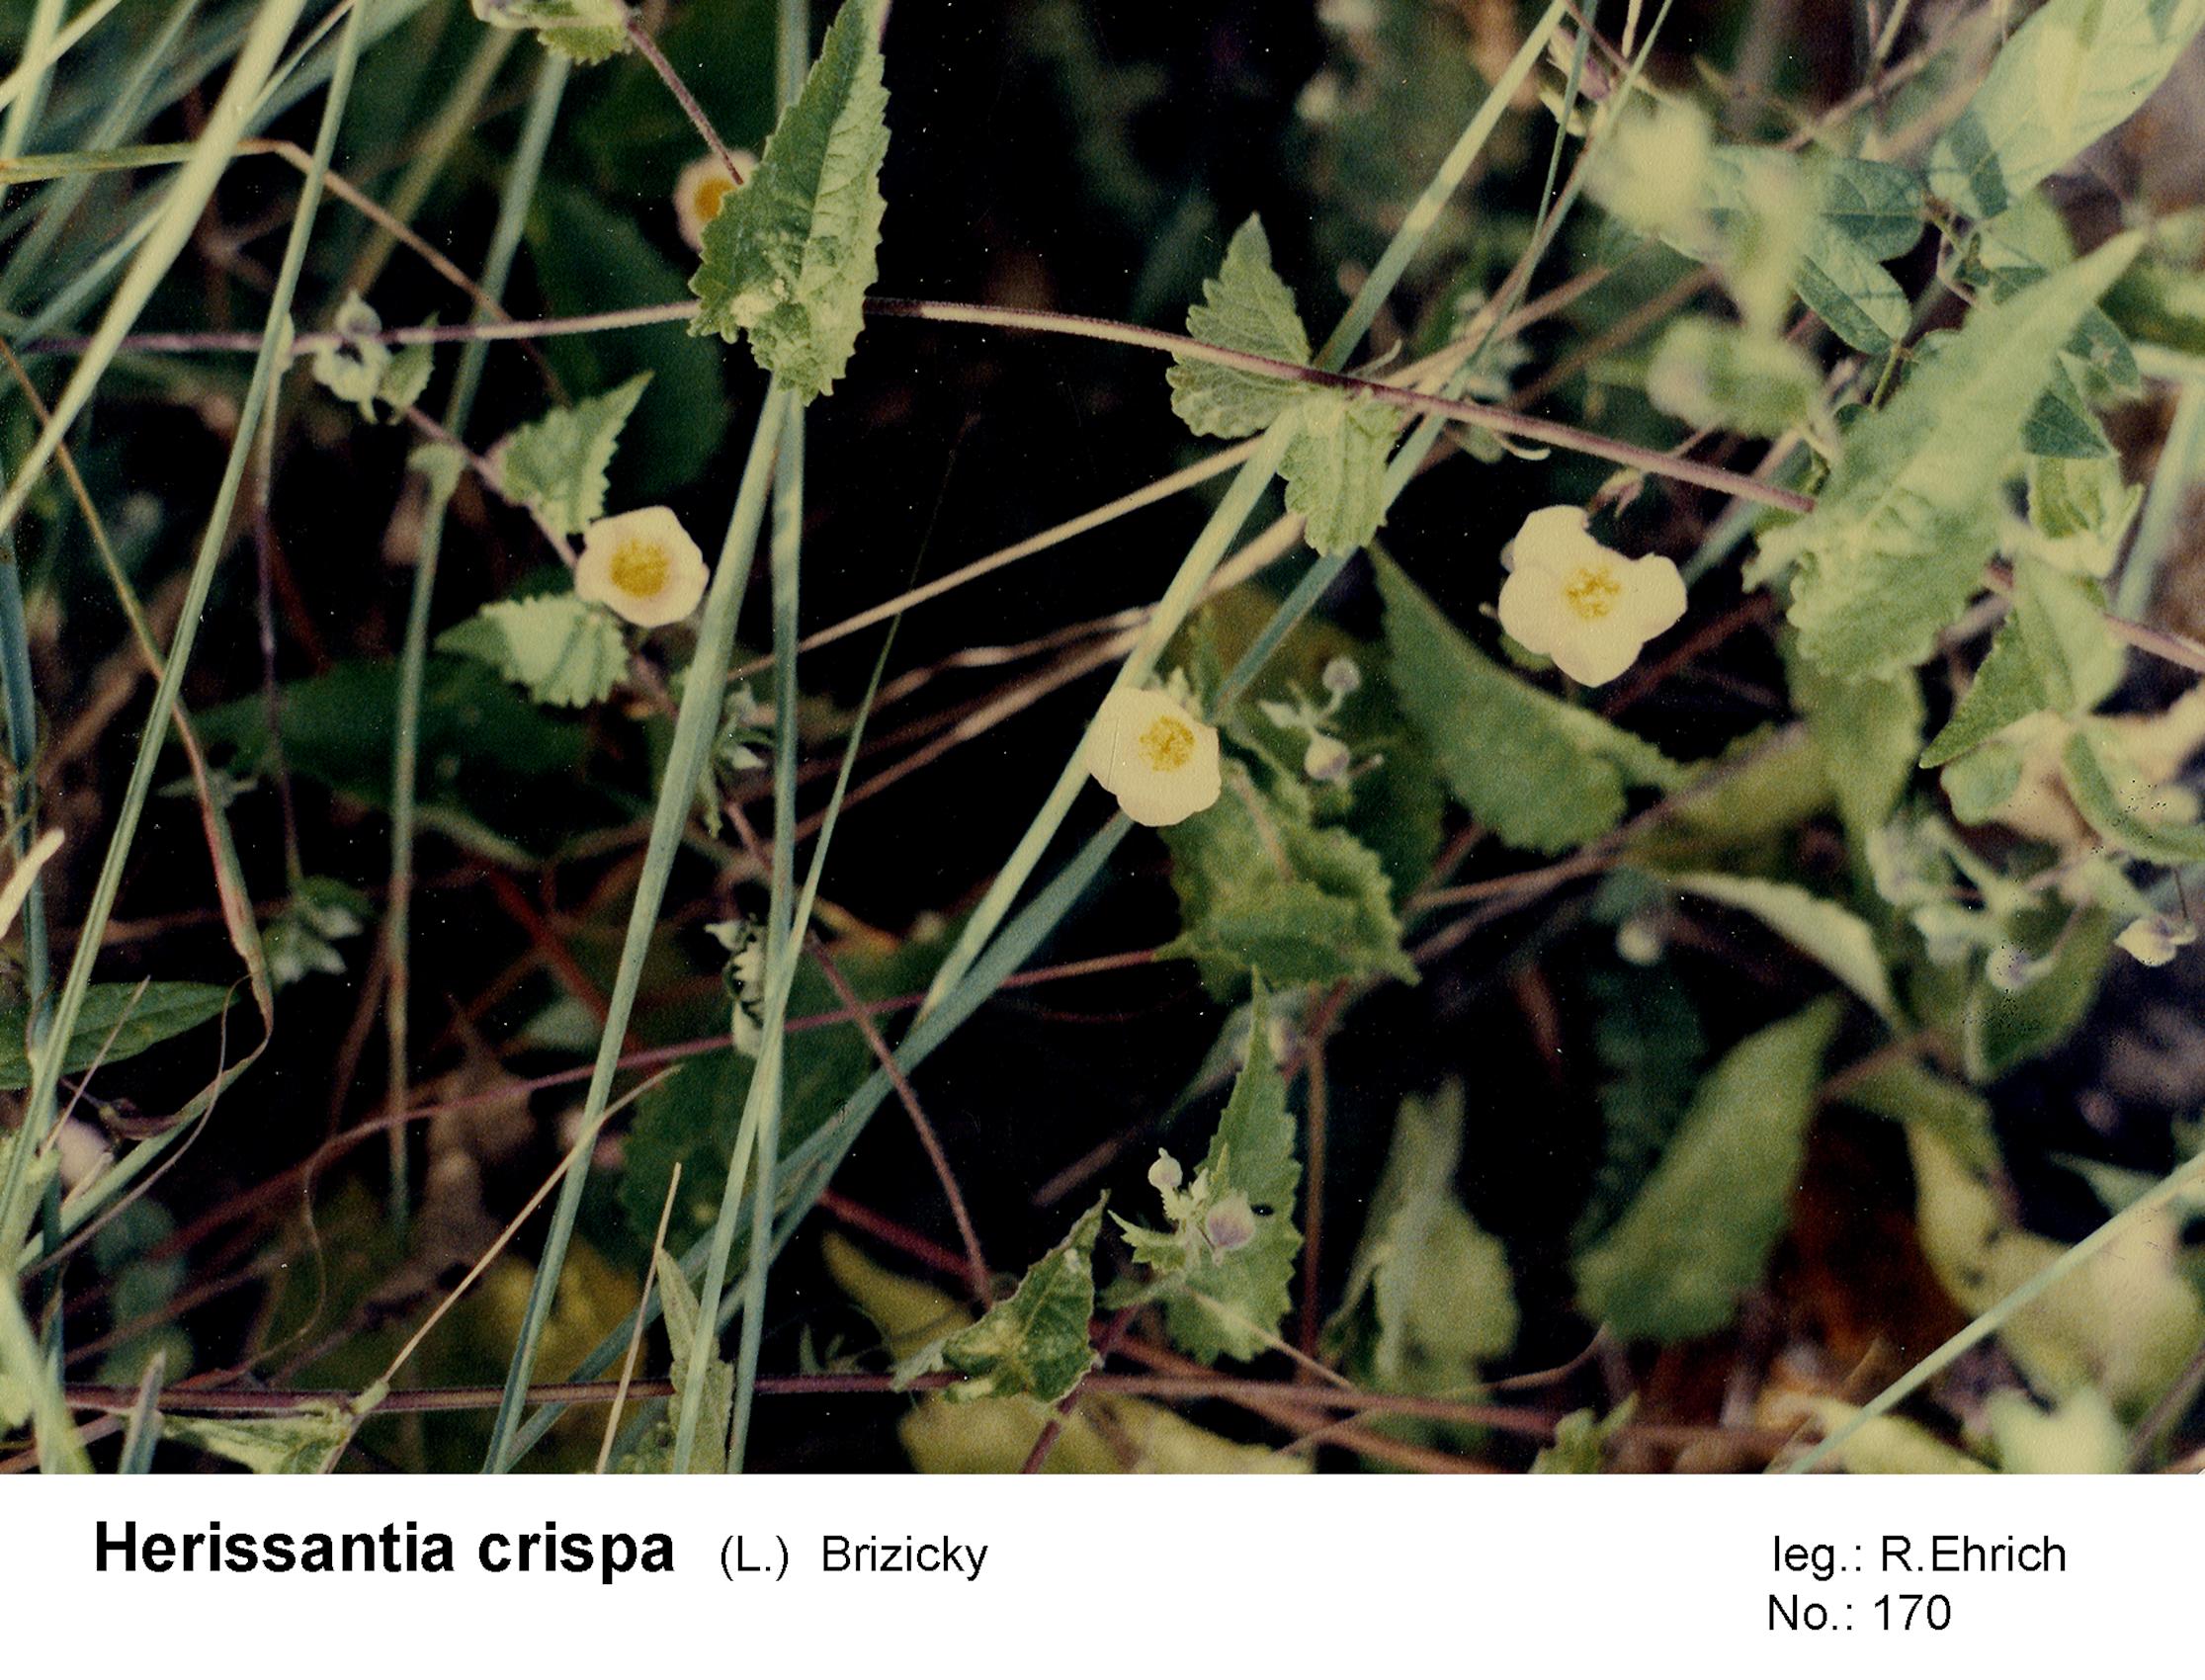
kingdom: Plantae
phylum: Tracheophyta
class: Magnoliopsida
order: Malvales
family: Malvaceae
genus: Herissantia
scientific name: Herissantia crispa
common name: Bladdermallow
